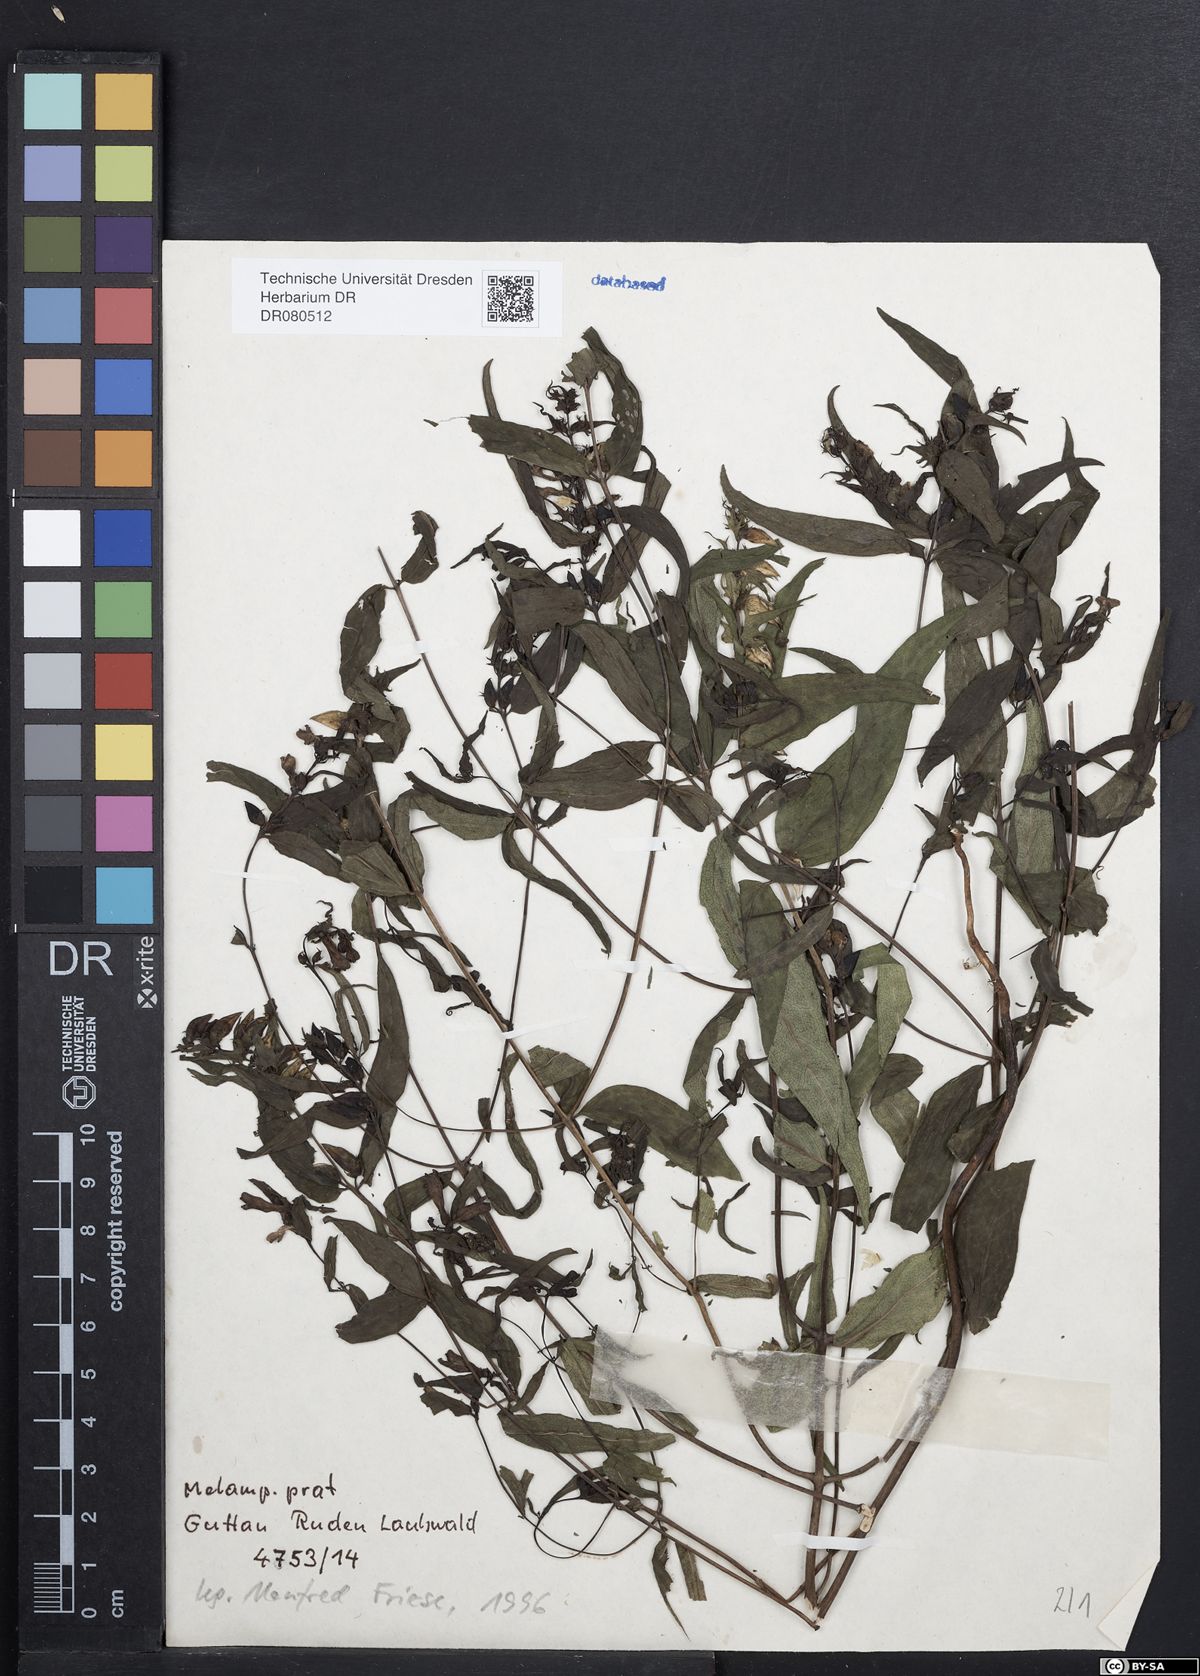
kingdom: Plantae
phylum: Tracheophyta
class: Magnoliopsida
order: Lamiales
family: Orobanchaceae
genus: Melampyrum
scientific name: Melampyrum pratense
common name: Common cow-wheat
